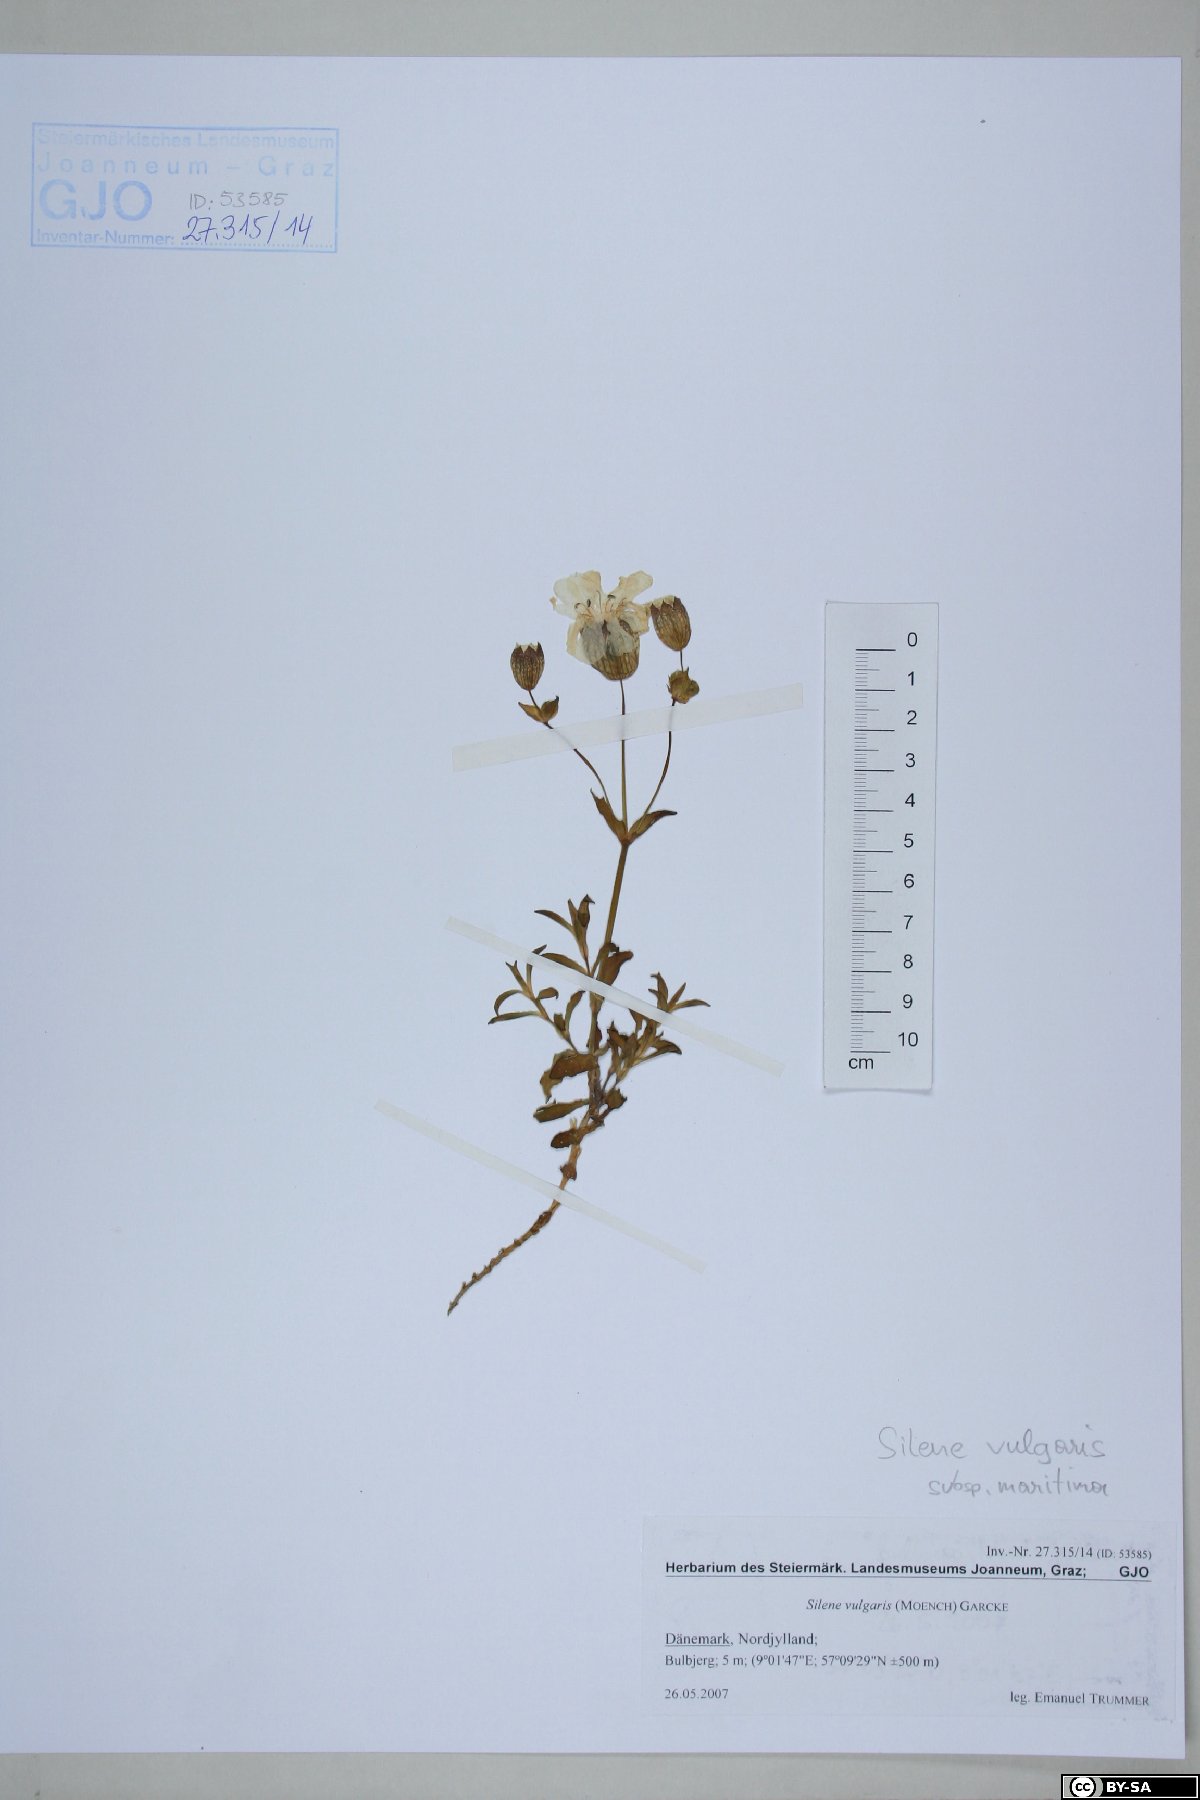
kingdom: Plantae
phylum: Tracheophyta
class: Magnoliopsida
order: Caryophyllales
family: Caryophyllaceae
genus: Silene
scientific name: Silene vulgaris
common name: Bladder campion
